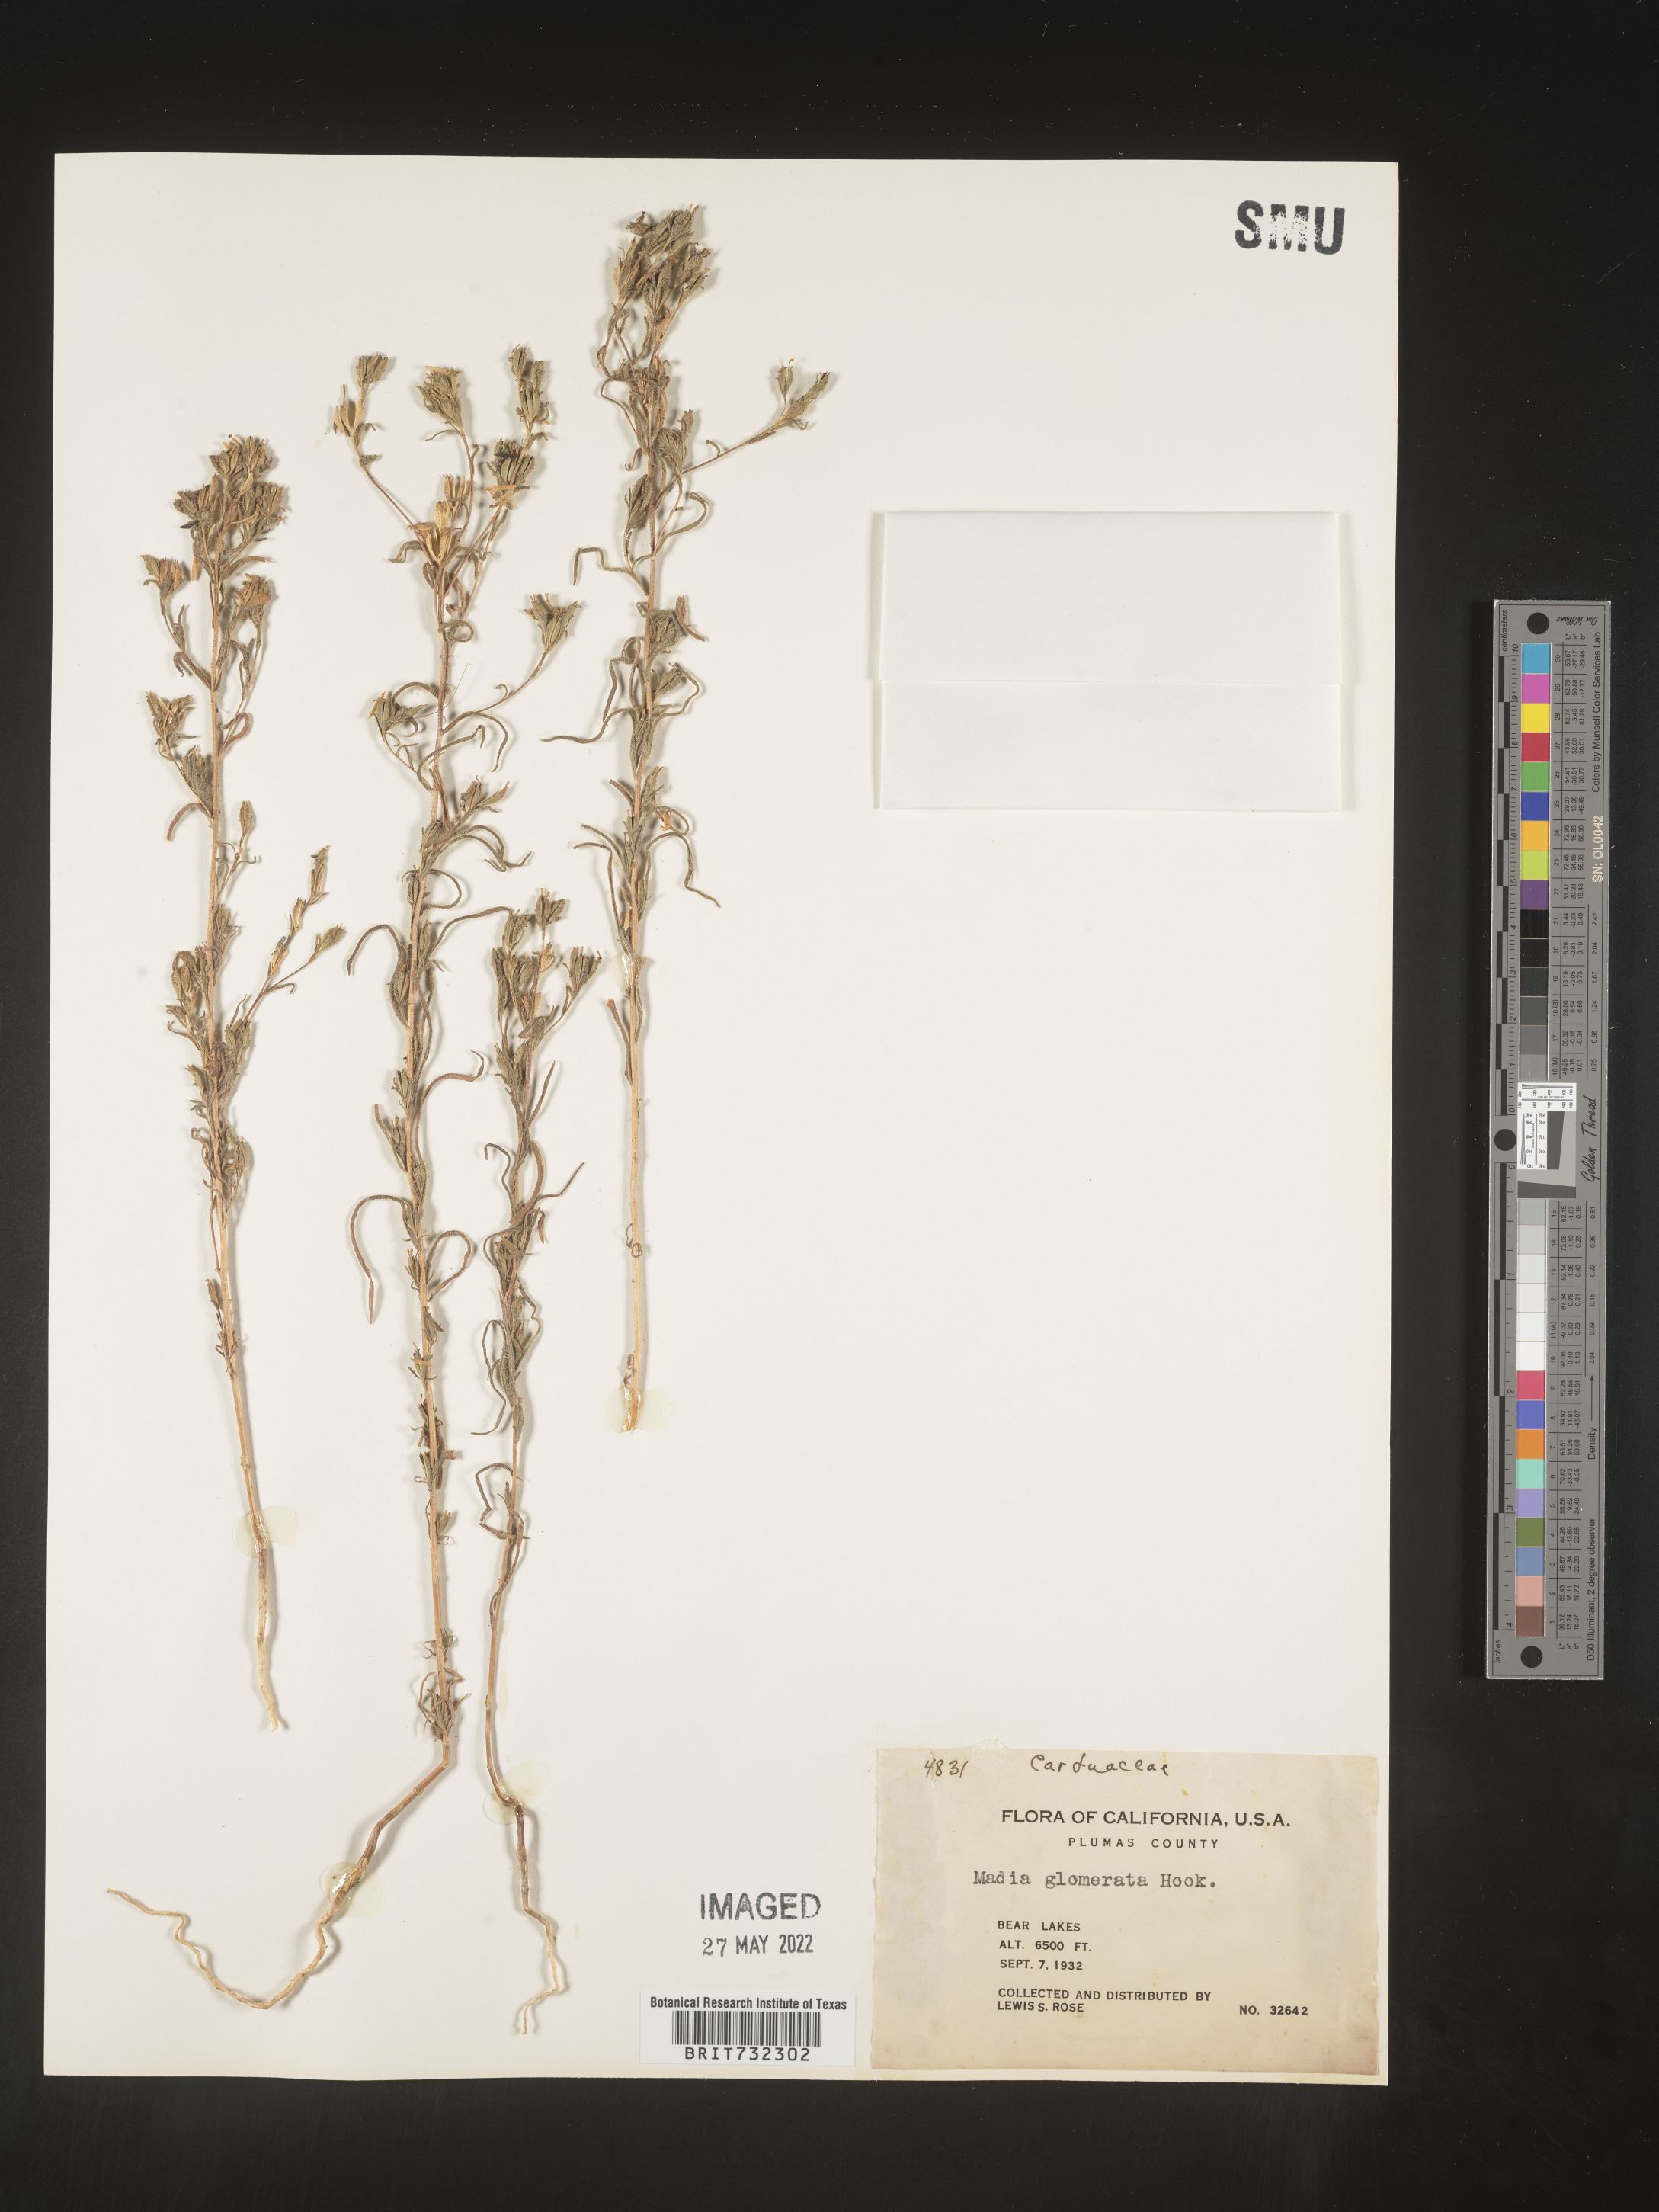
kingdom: Plantae
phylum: Tracheophyta
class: Magnoliopsida
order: Asterales
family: Asteraceae
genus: Madia
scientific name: Madia glomerata
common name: Mountain tarweed
